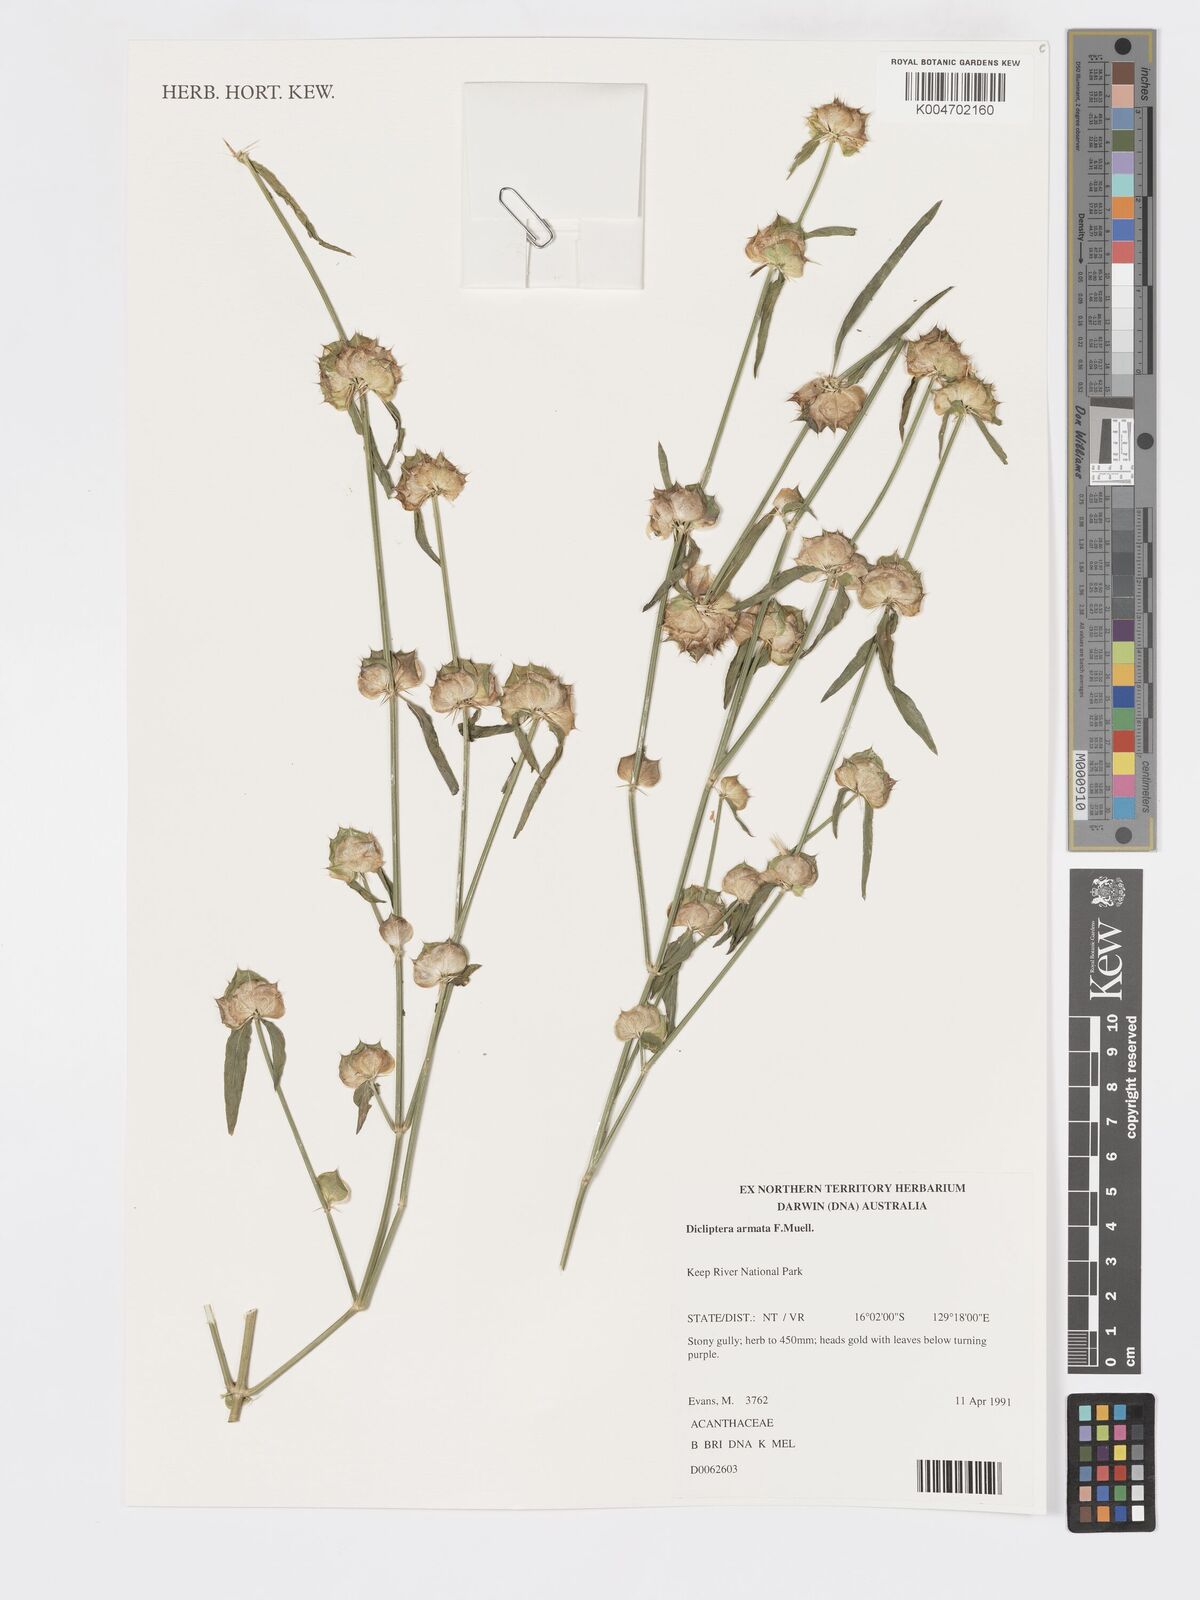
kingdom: Plantae
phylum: Tracheophyta
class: Magnoliopsida
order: Lamiales
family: Acanthaceae
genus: Dicliptera
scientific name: Dicliptera armata
